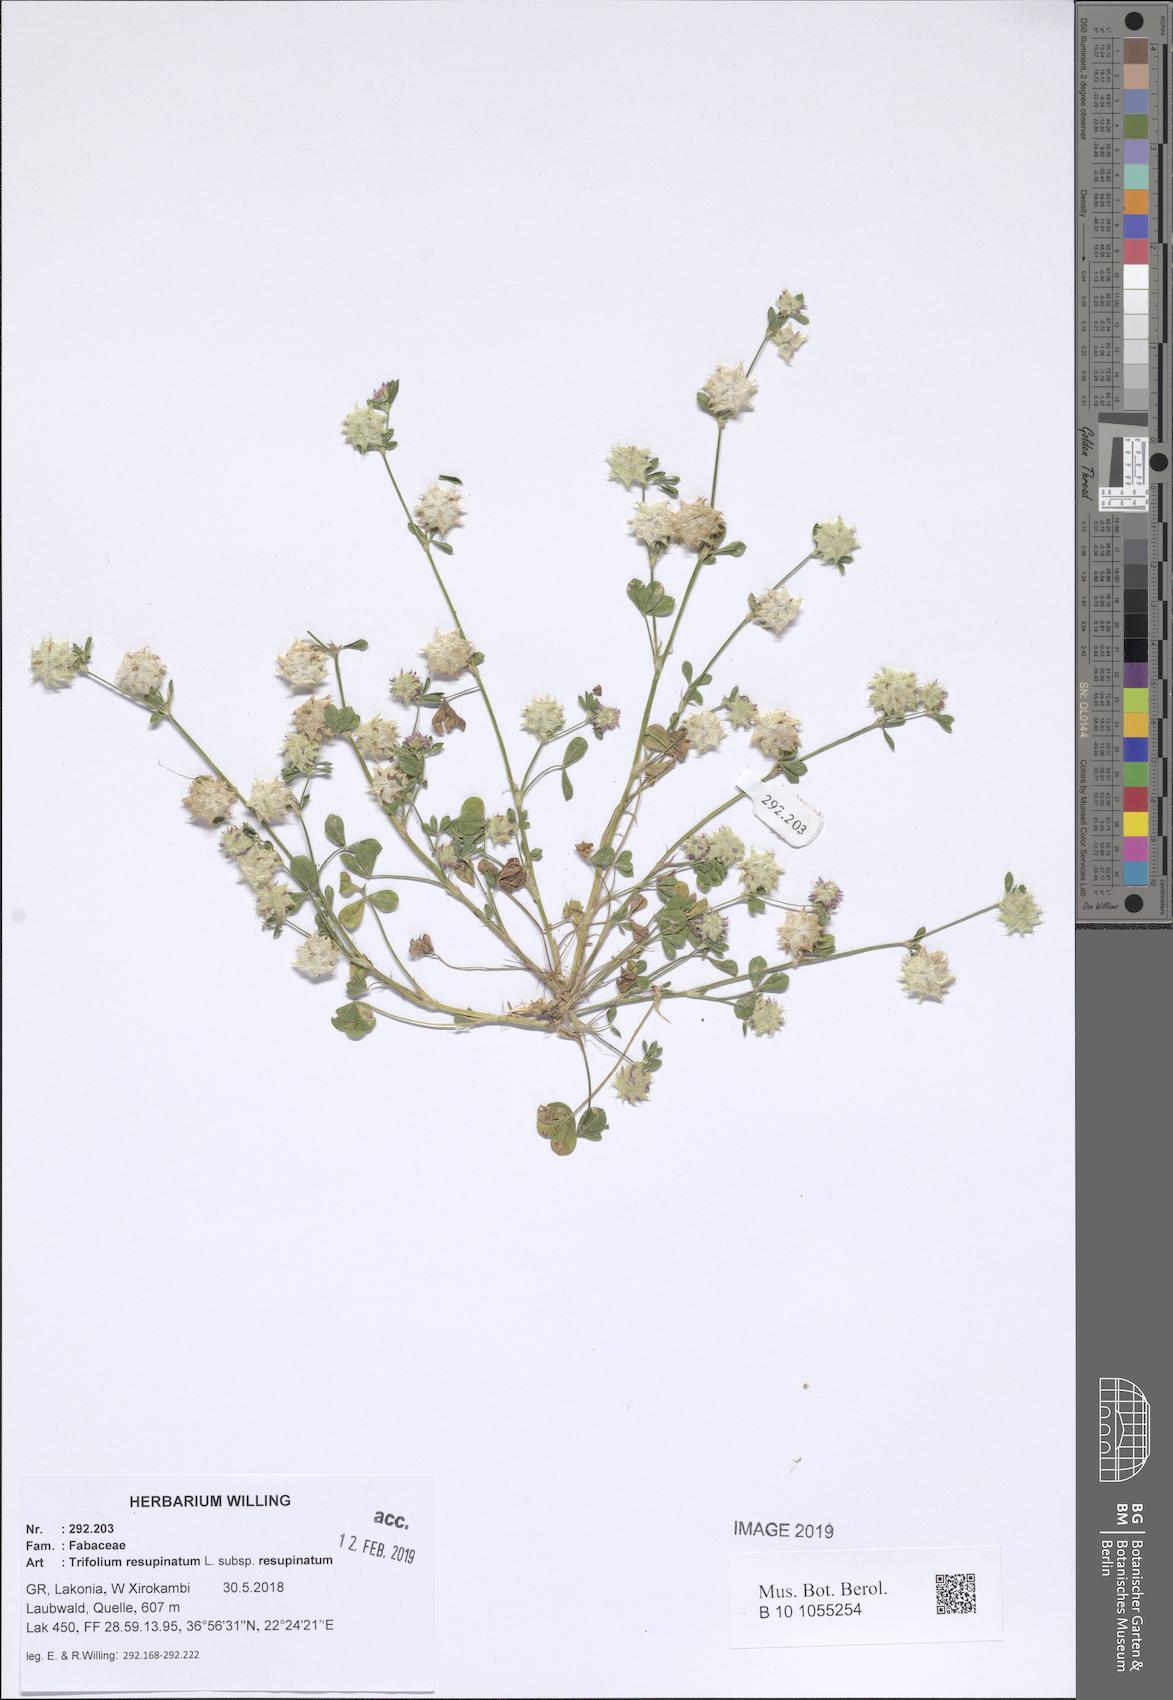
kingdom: Plantae
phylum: Tracheophyta
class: Magnoliopsida
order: Fabales
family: Fabaceae
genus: Trifolium
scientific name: Trifolium resupinatum
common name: Reversed clover
